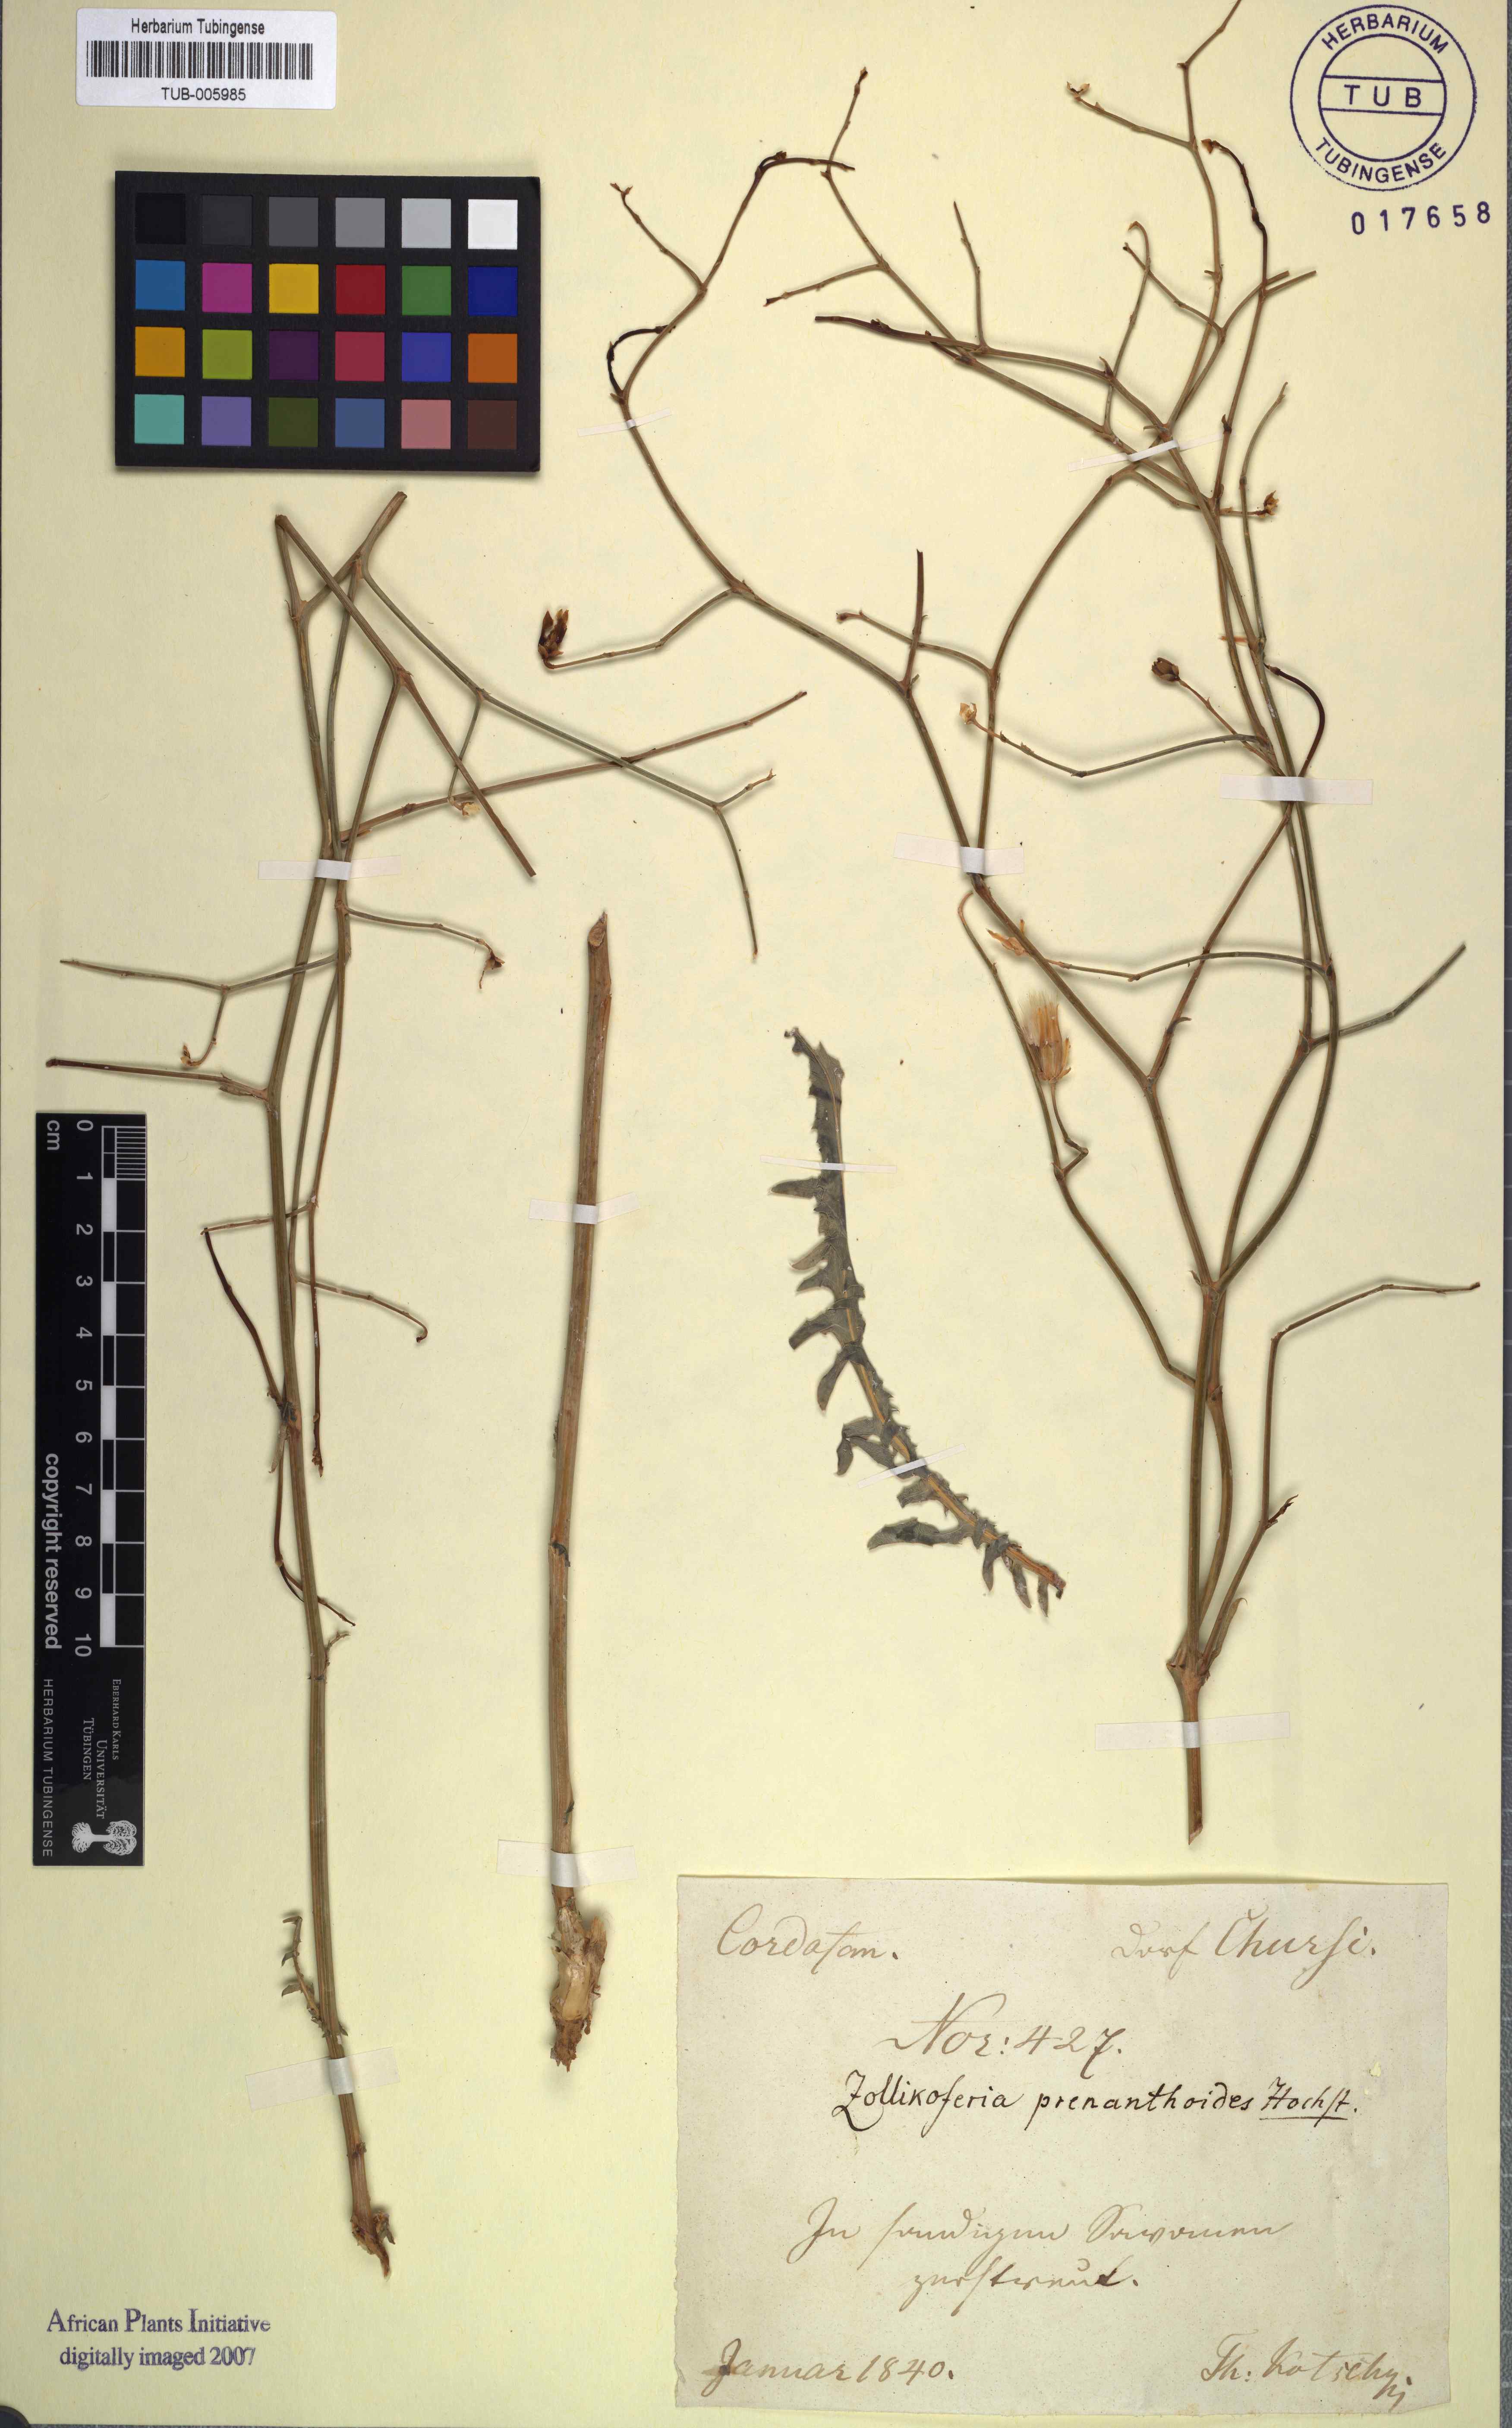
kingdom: Plantae
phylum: Tracheophyta
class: Magnoliopsida
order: Asterales
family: Asteraceae
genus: Launaea
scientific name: Launaea brunneri
